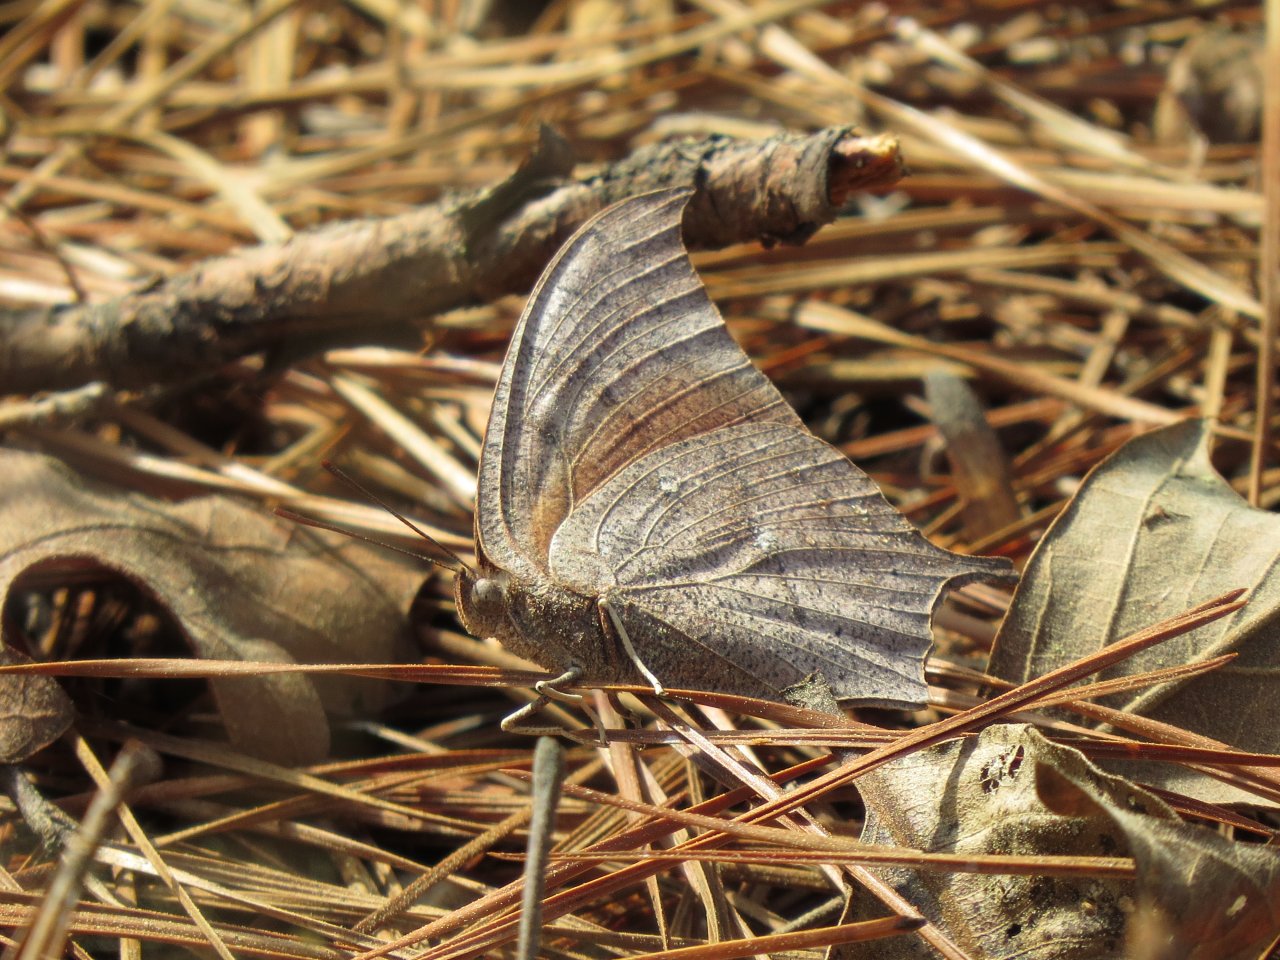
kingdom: Animalia
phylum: Arthropoda
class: Insecta
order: Lepidoptera
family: Nymphalidae
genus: Anaea
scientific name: Anaea andria
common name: Goatweed Leafwing
